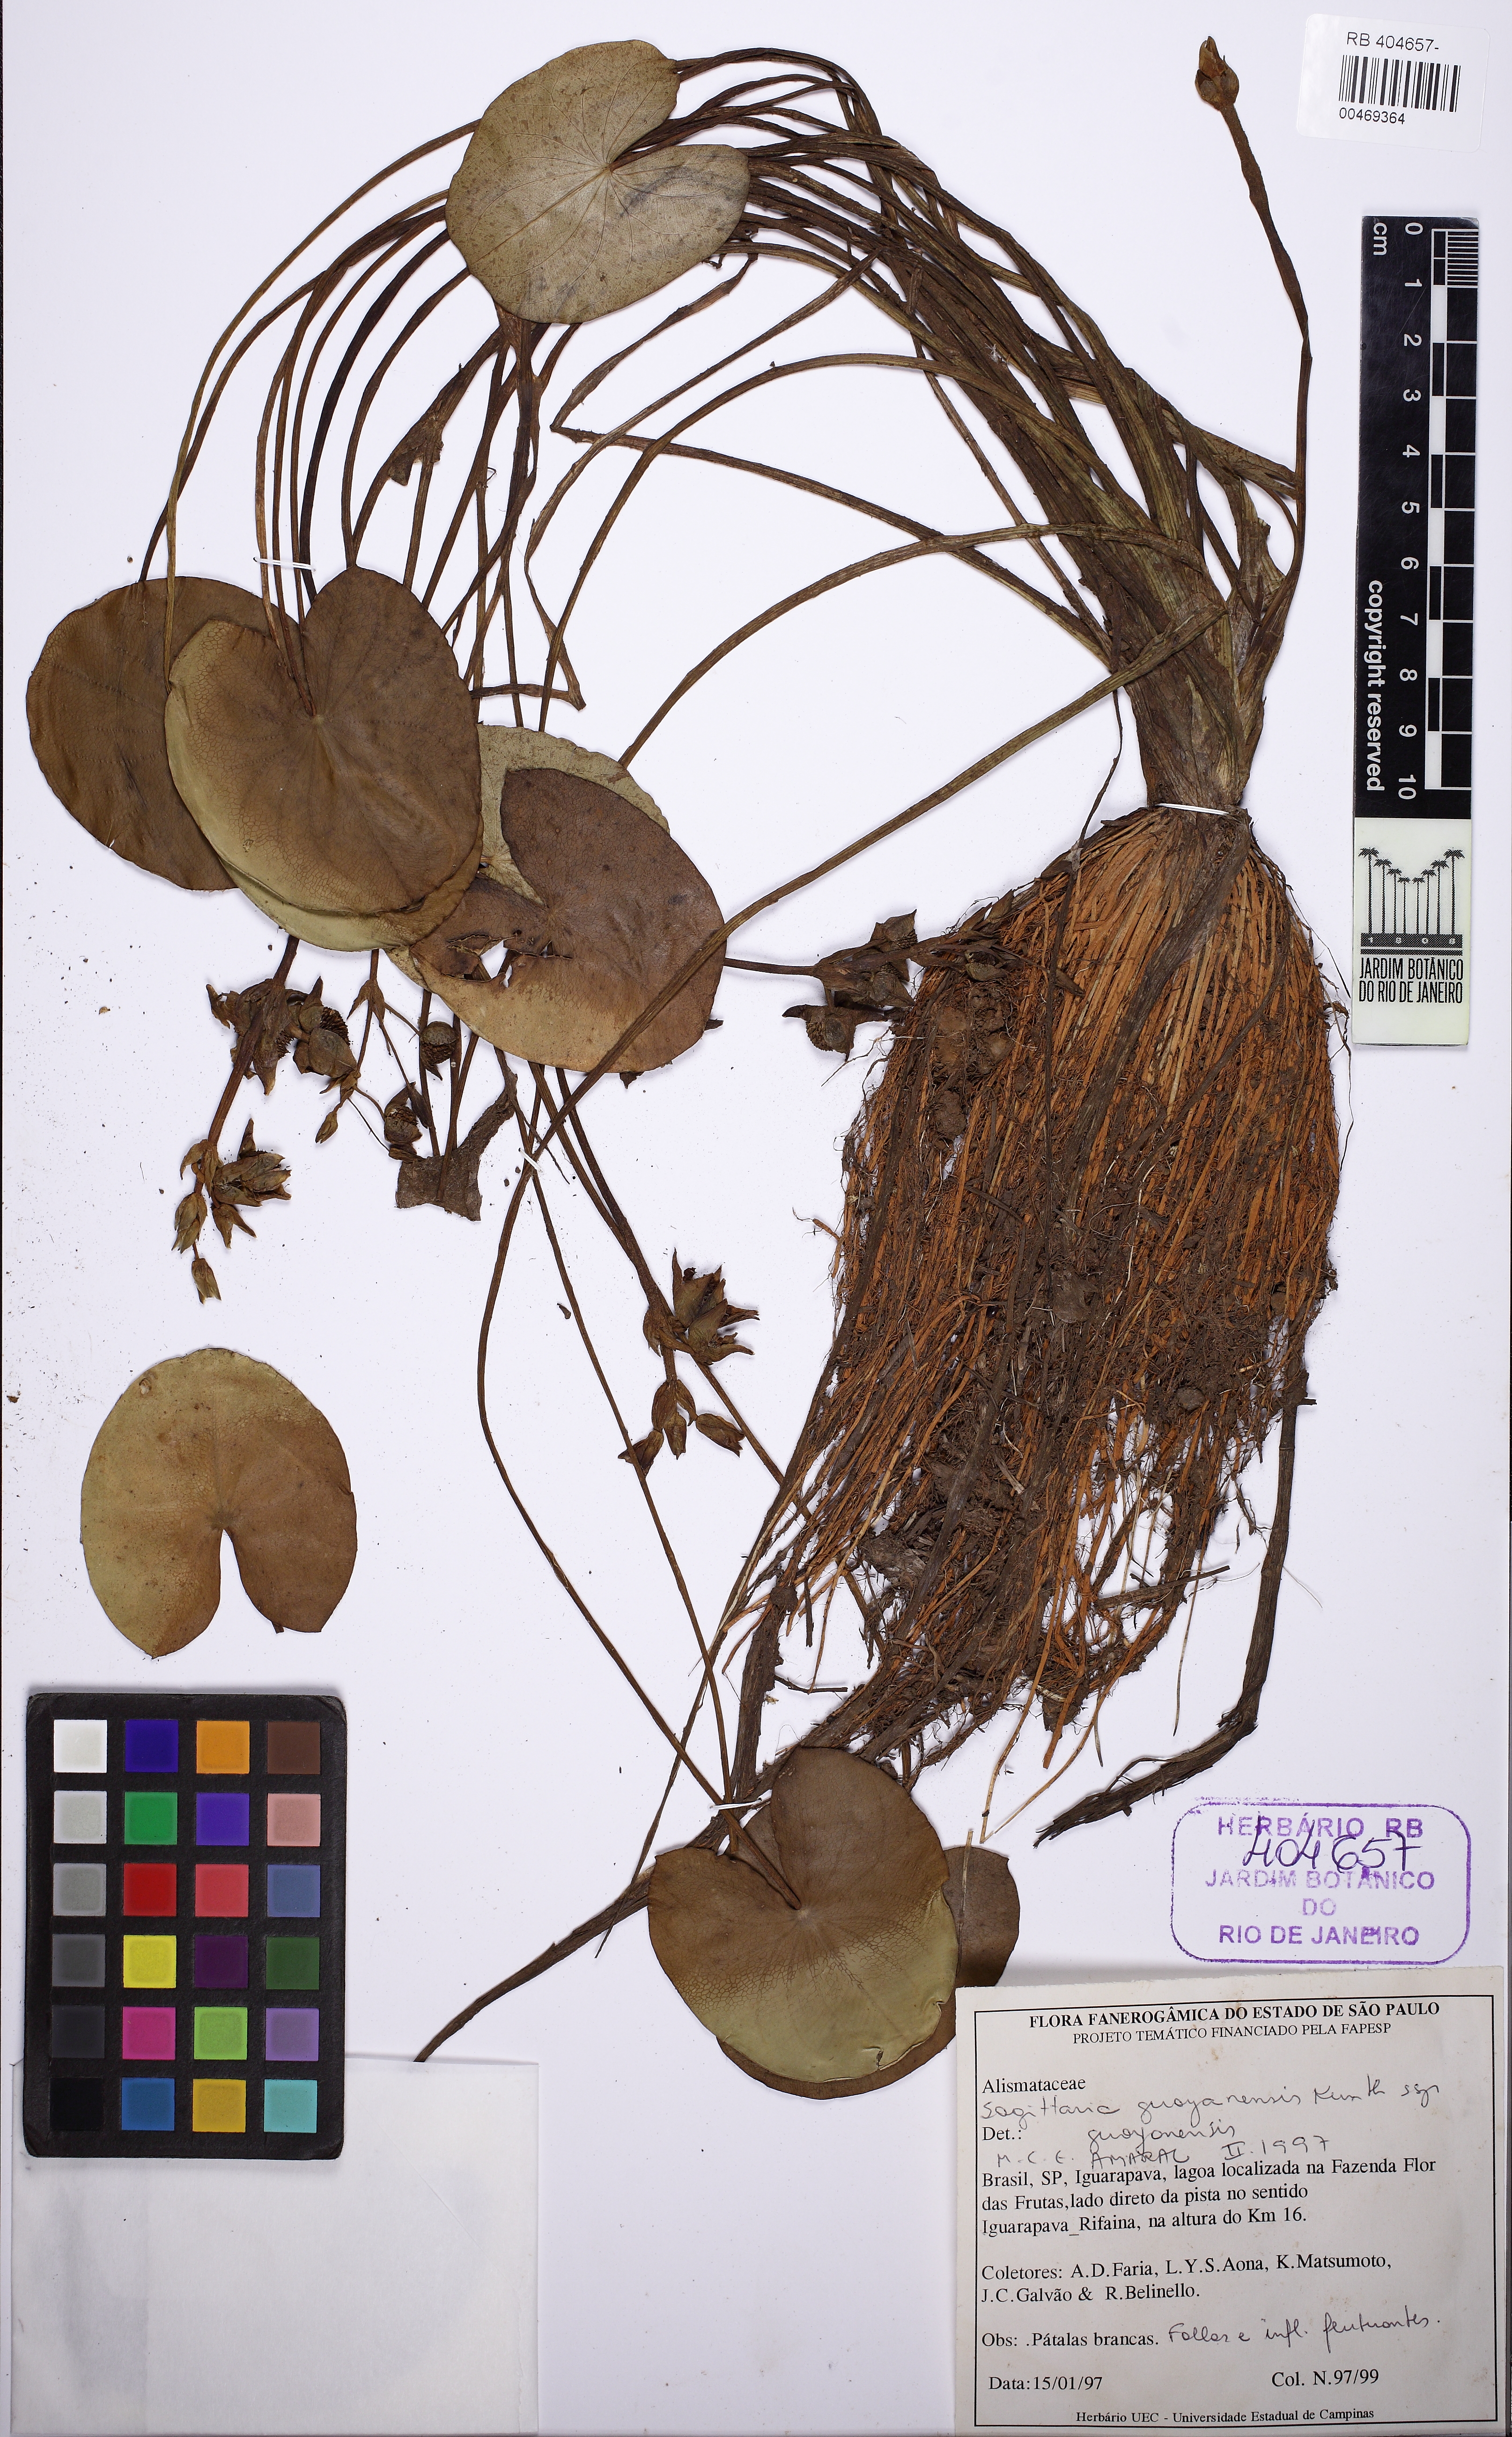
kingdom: Plantae
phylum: Tracheophyta
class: Liliopsida
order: Alismatales
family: Alismataceae
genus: Sagittaria
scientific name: Sagittaria guayanensis
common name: Guyanese arrowhead
